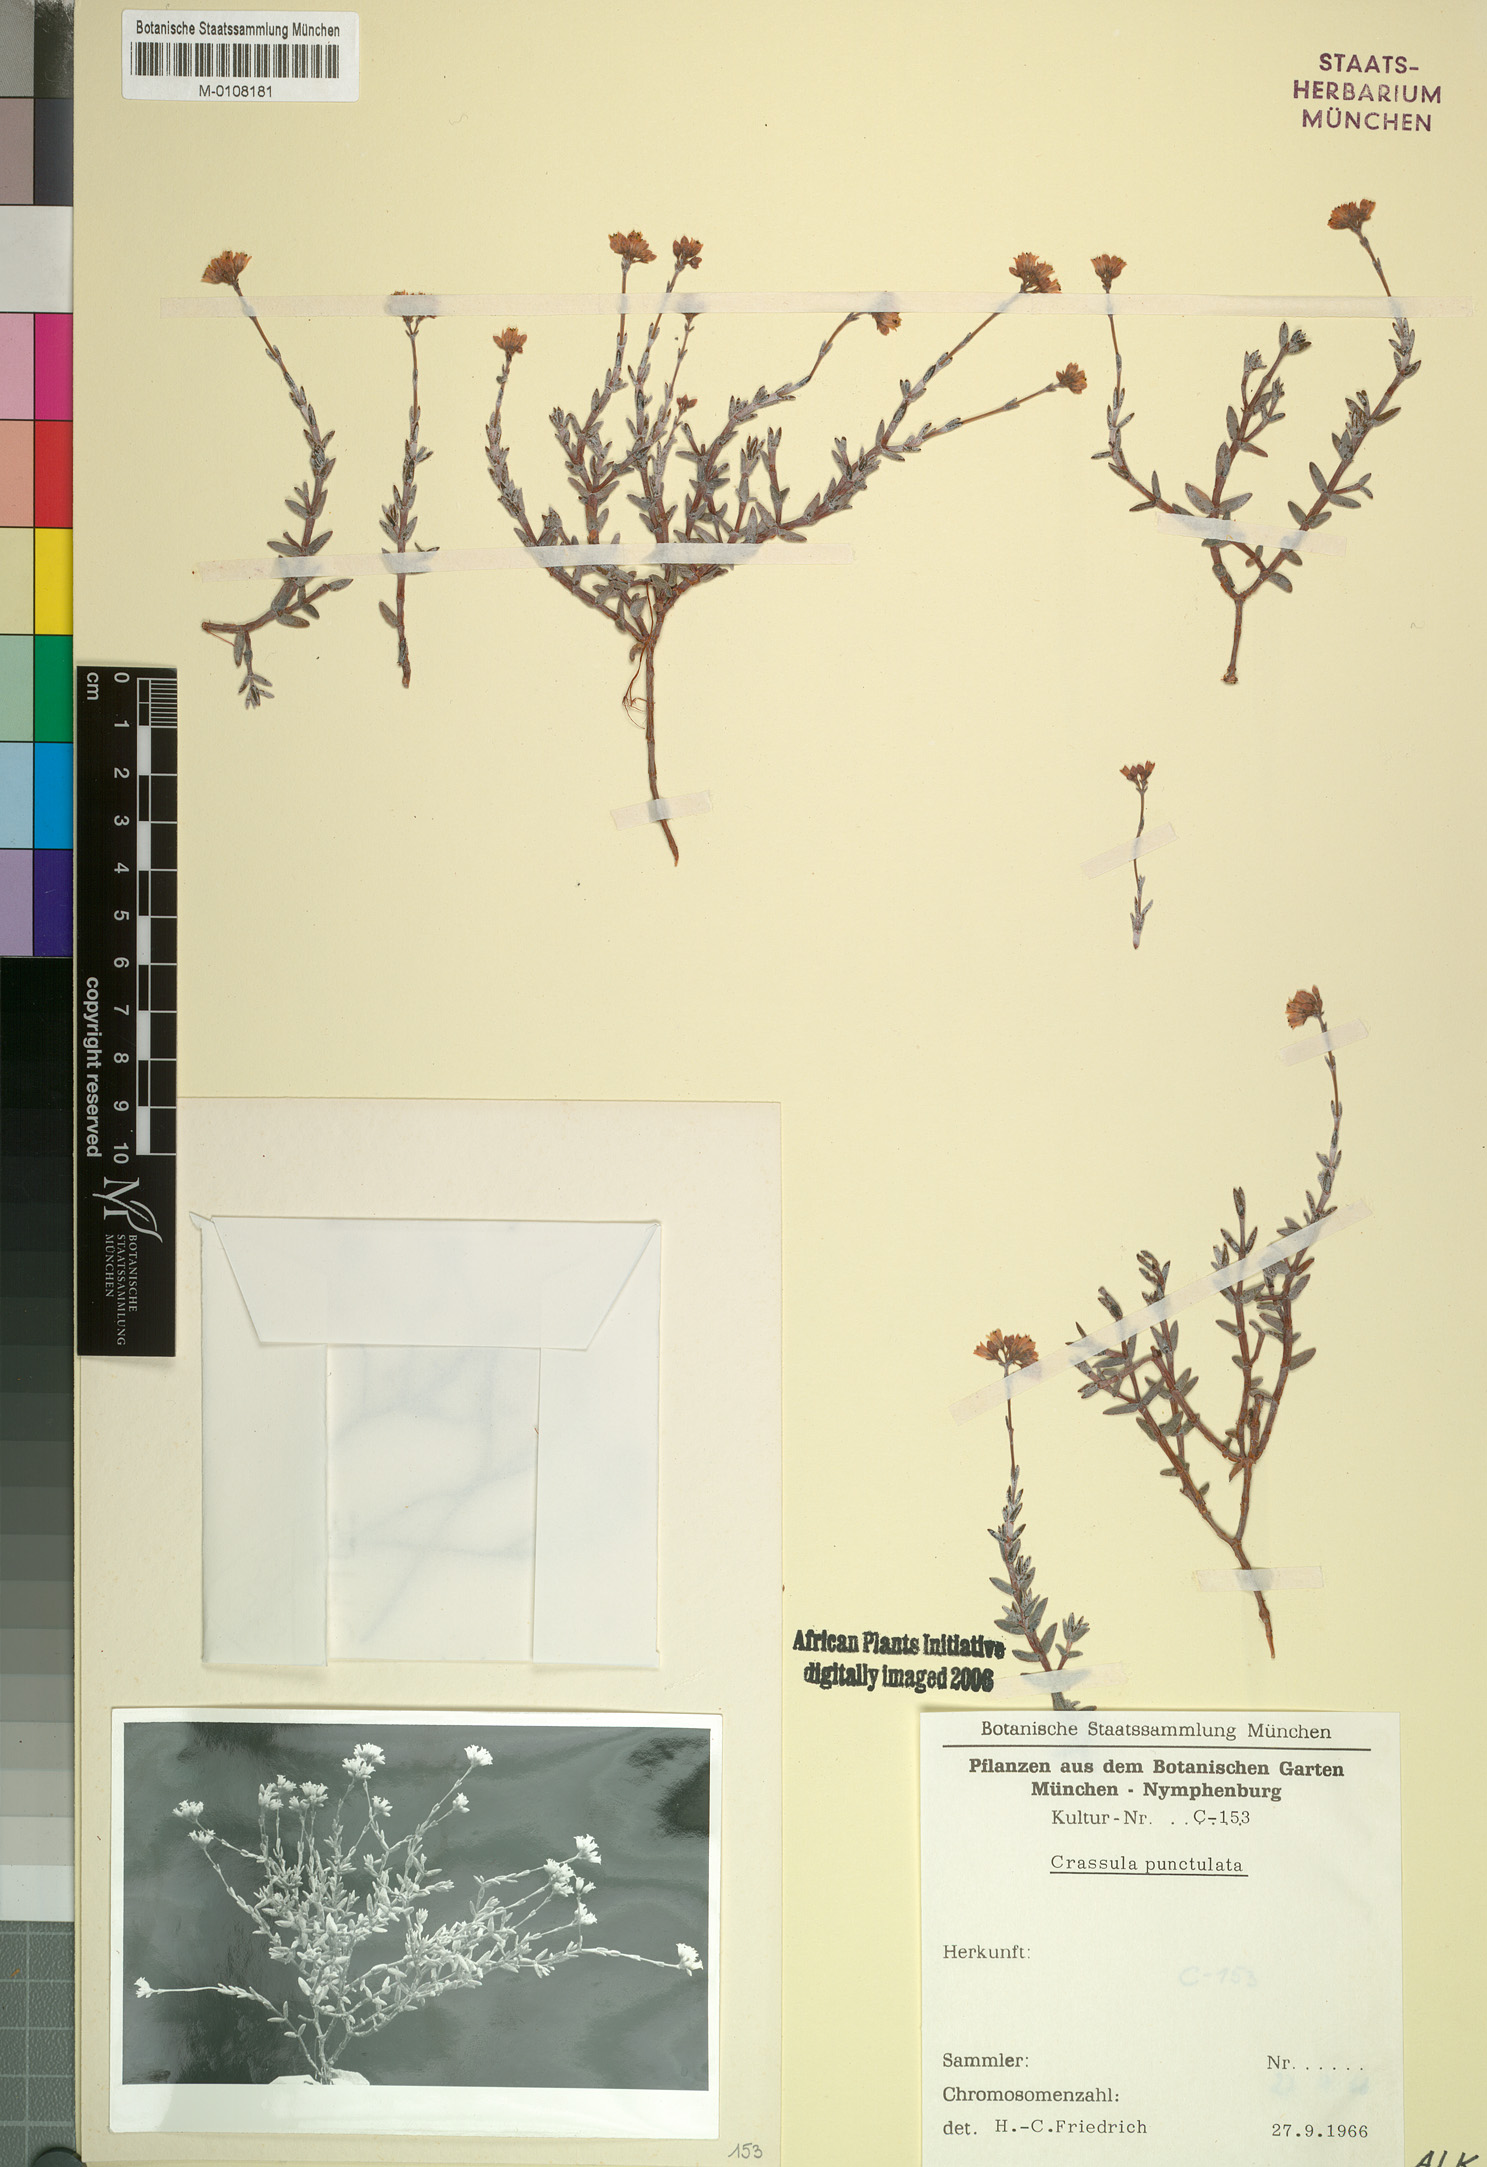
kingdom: Plantae
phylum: Tracheophyta
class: Magnoliopsida
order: Saxifragales
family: Crassulaceae
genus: Crassula
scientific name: Crassula biplanata
